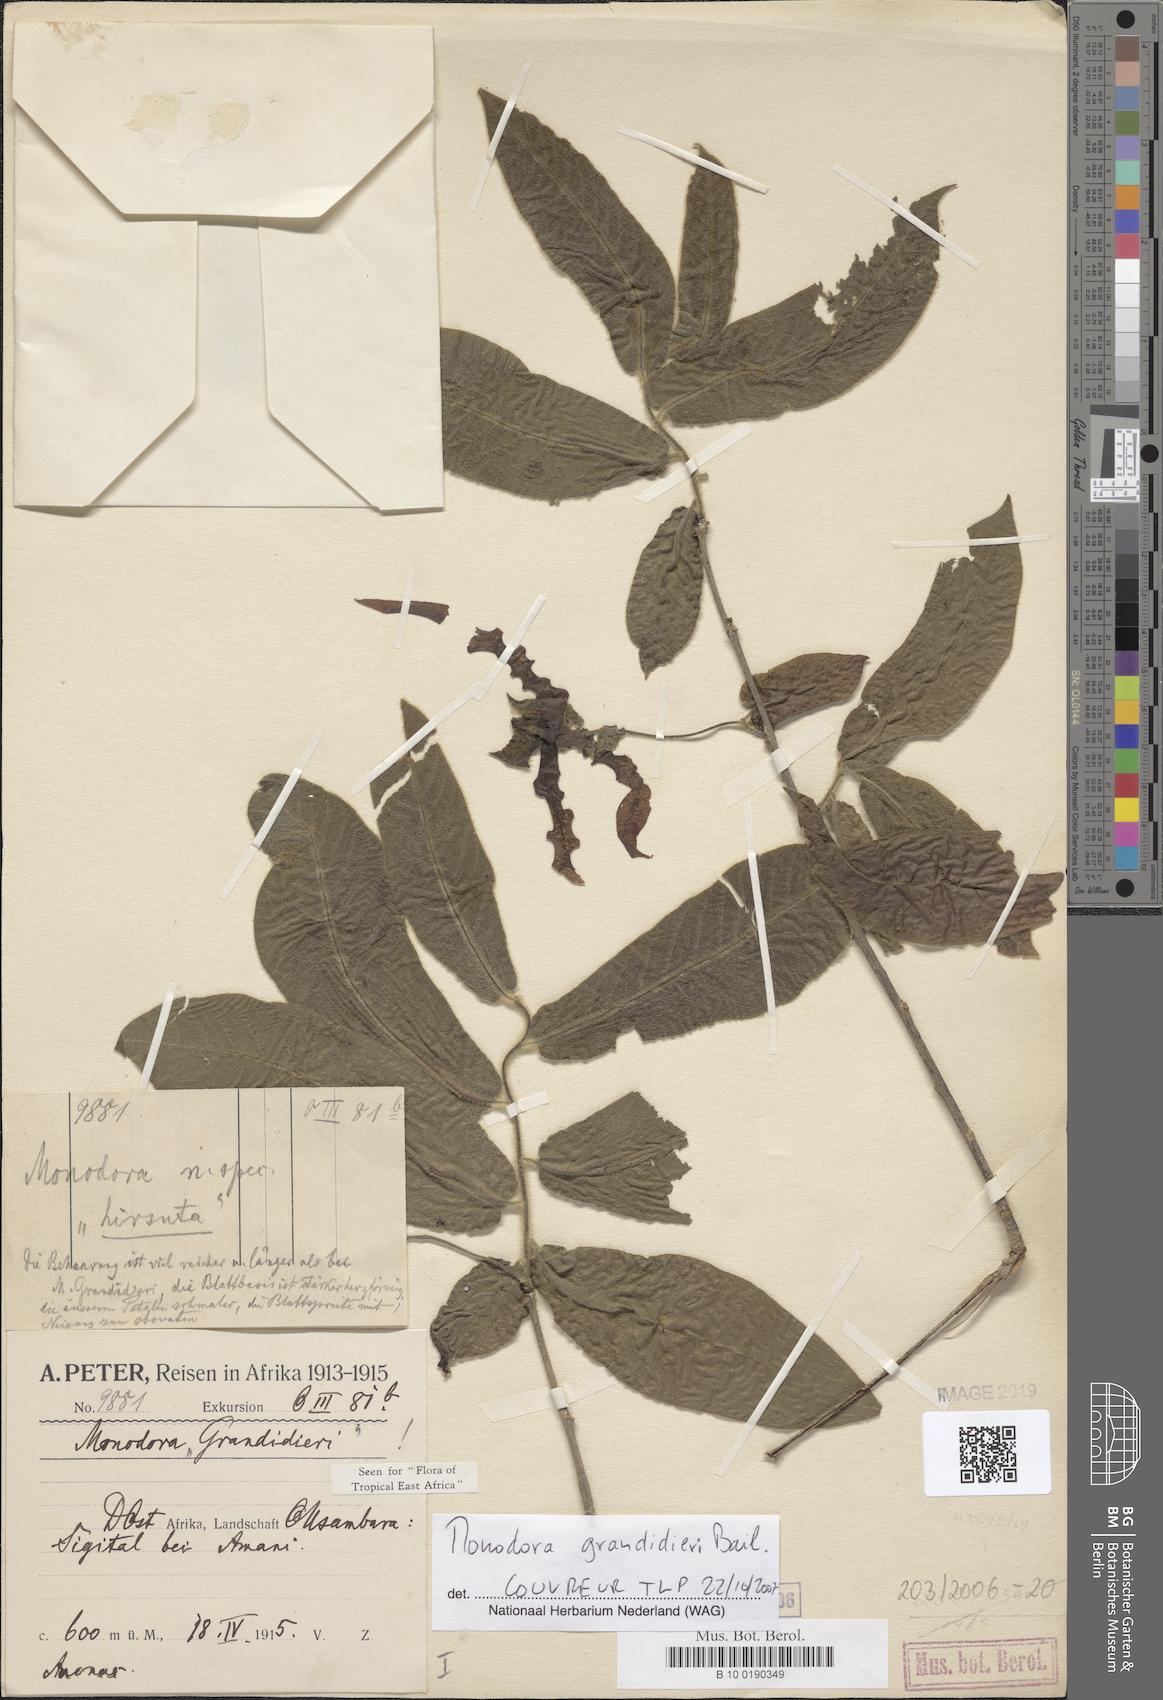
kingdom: Plantae
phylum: Tracheophyta
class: Magnoliopsida
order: Magnoliales
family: Annonaceae
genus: Monodora
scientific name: Monodora grandidieri
